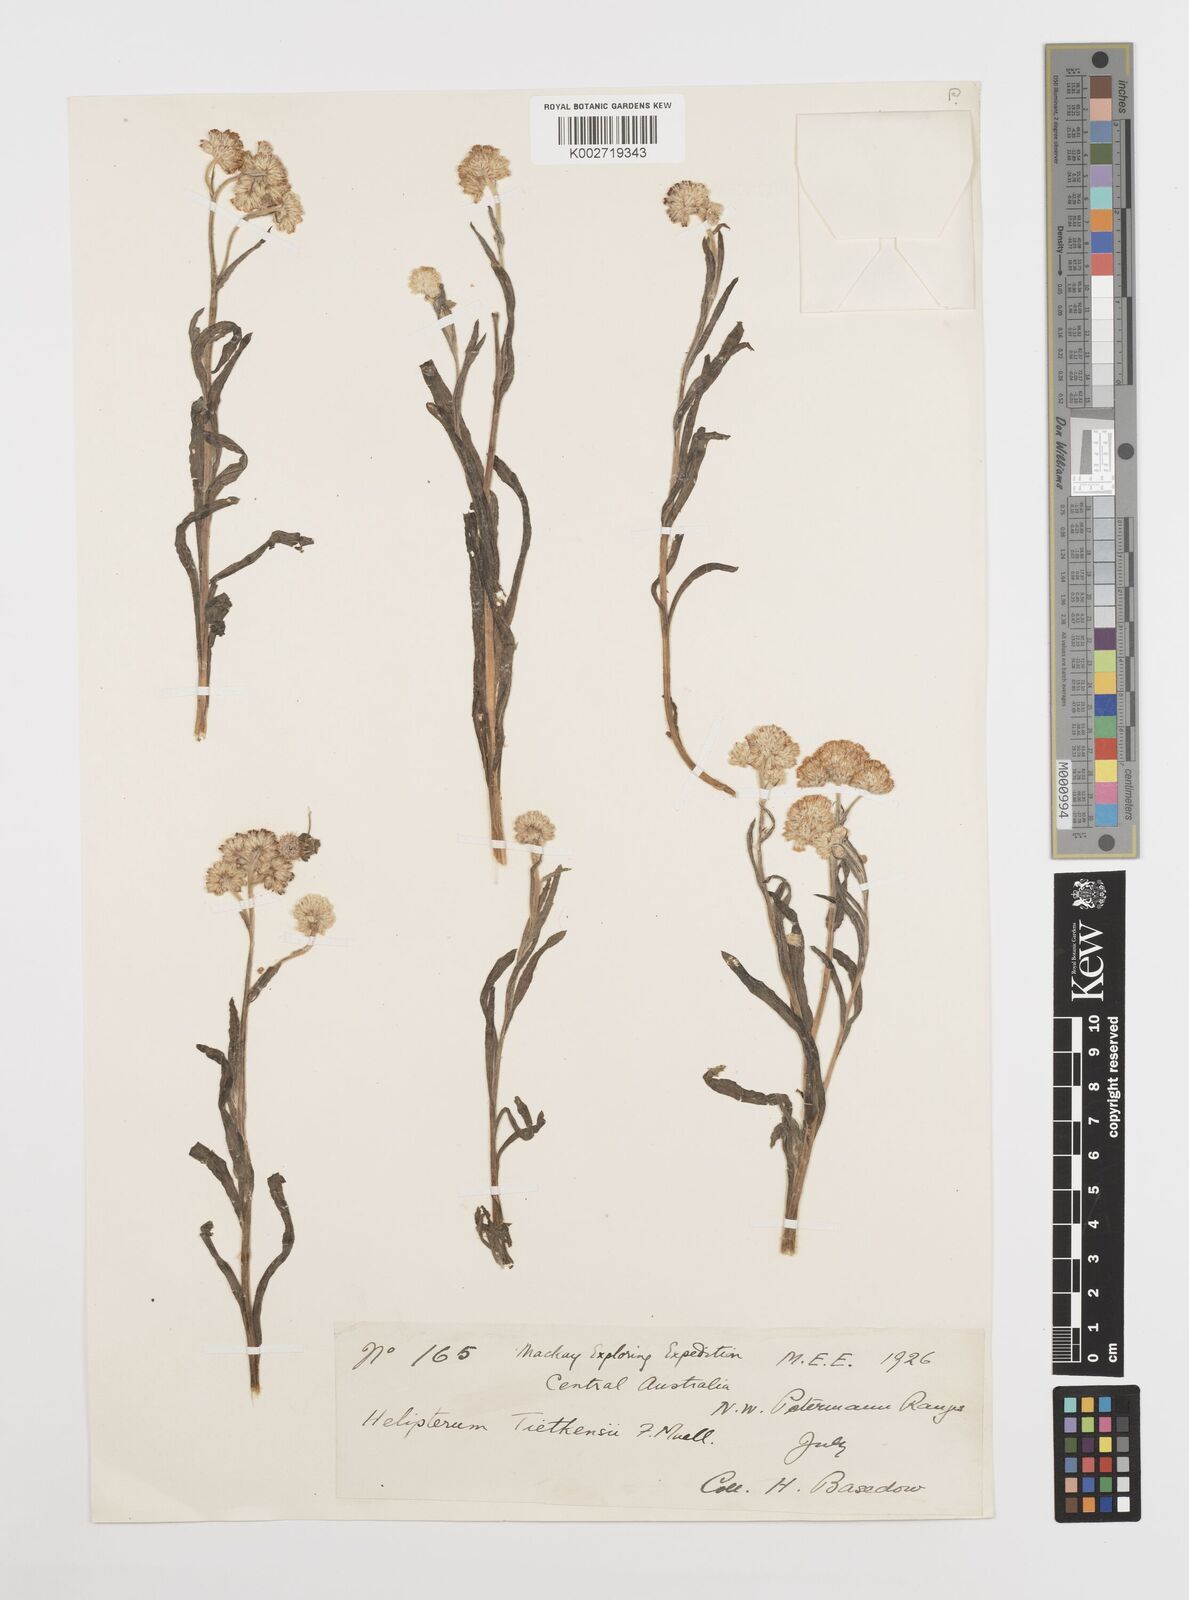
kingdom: Plantae
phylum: Tracheophyta
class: Magnoliopsida
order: Asterales
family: Asteraceae
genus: Rhodanthe
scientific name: Rhodanthe tietkensii
